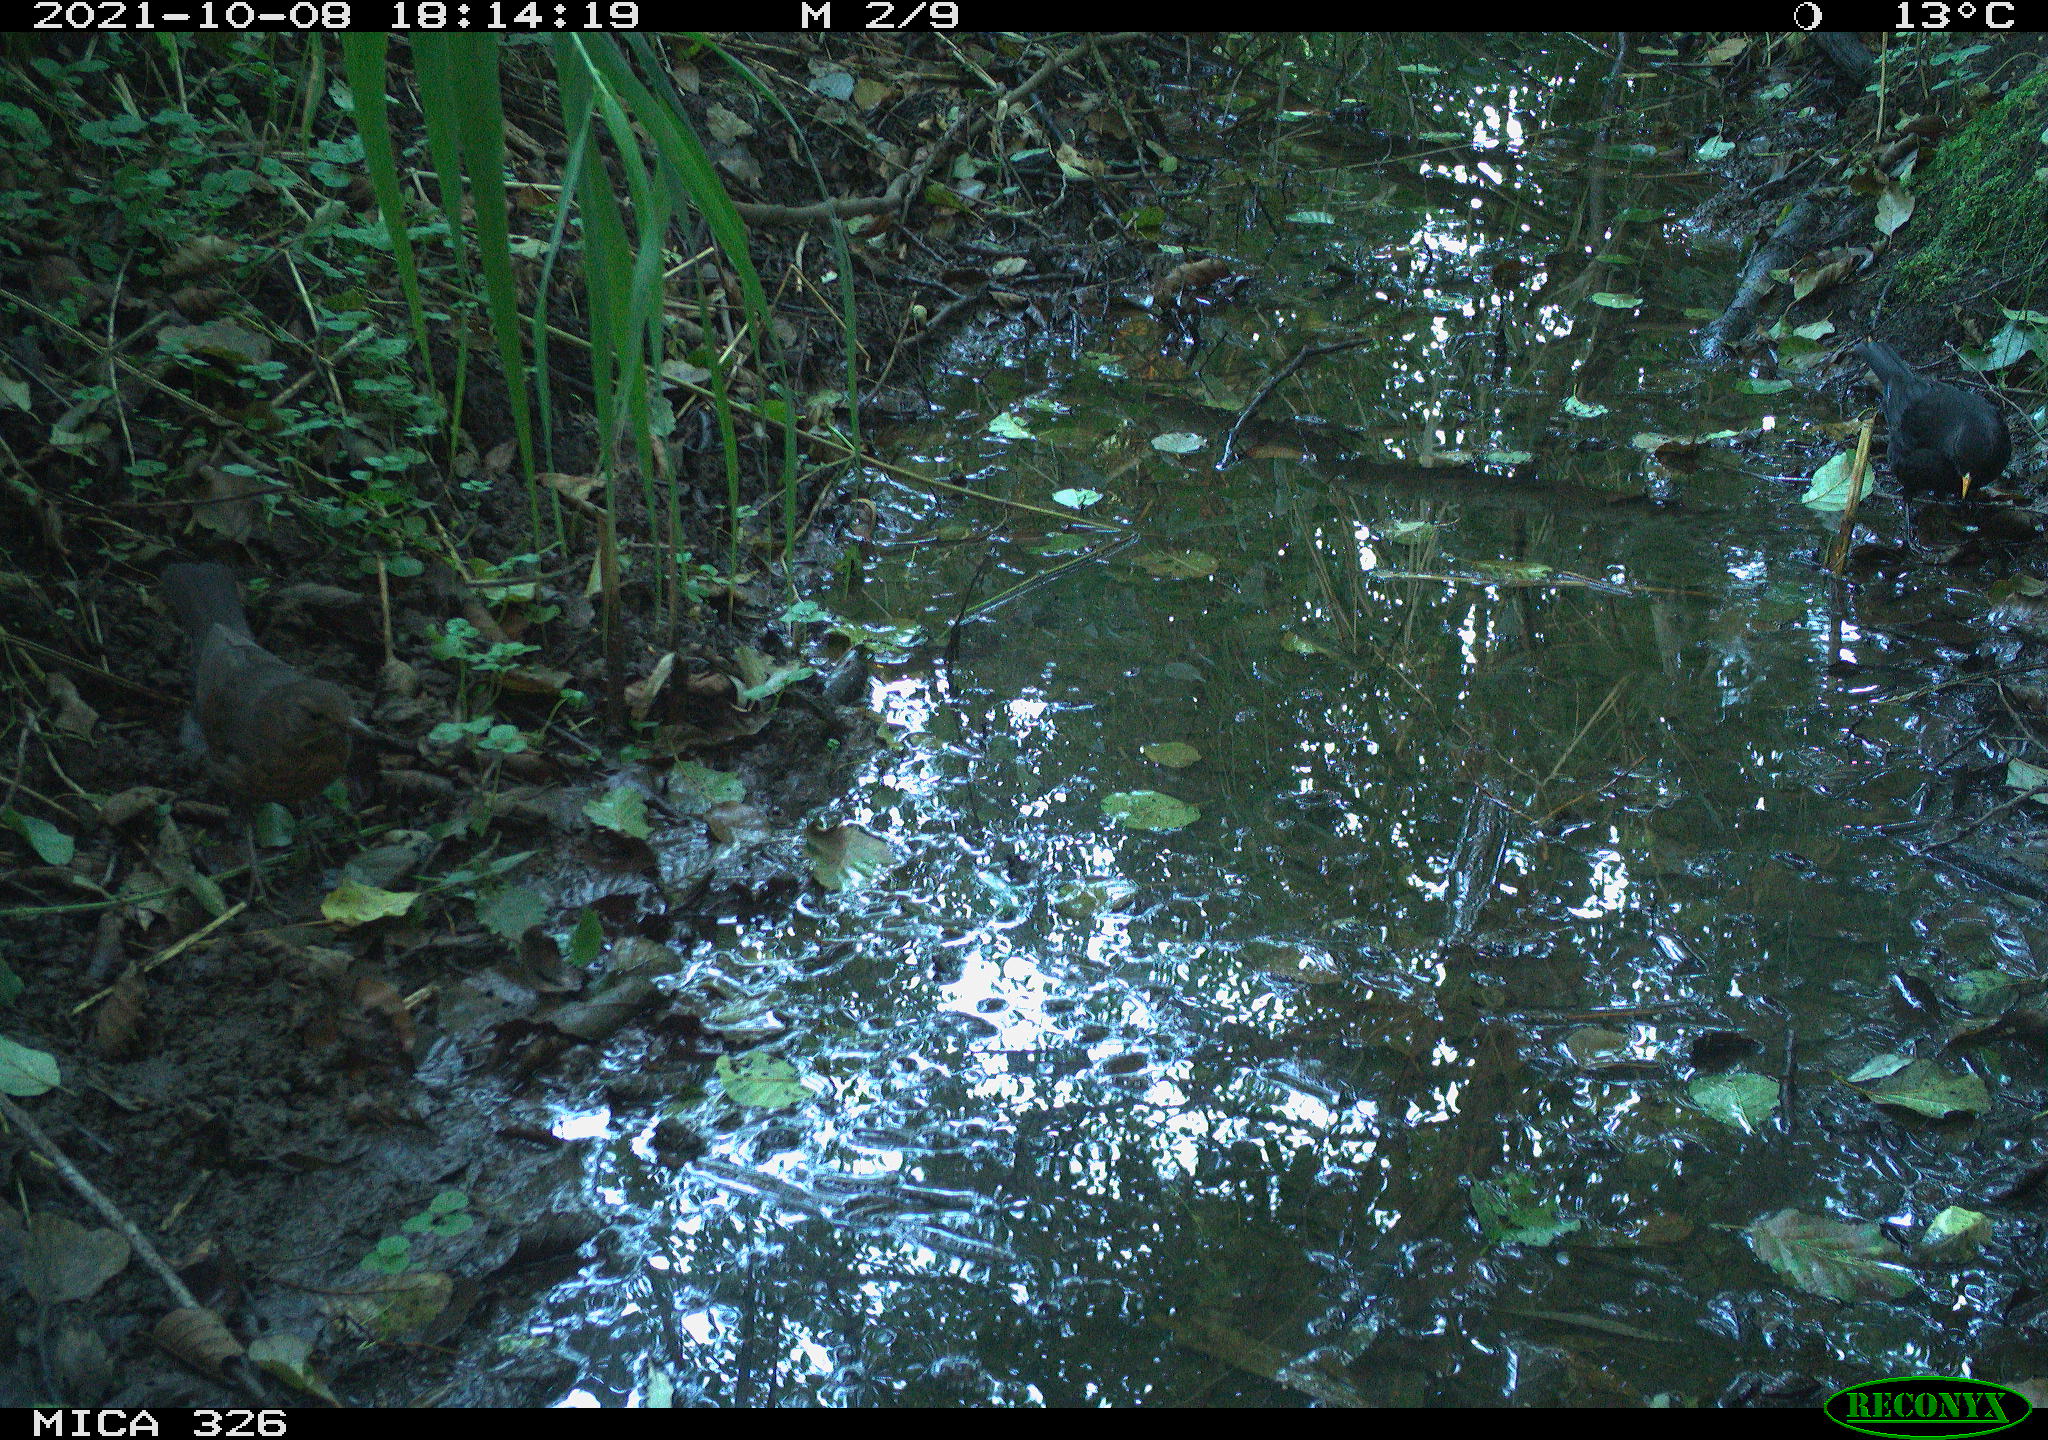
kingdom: Animalia
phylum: Chordata
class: Aves
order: Passeriformes
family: Turdidae
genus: Turdus
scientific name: Turdus merula
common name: Common blackbird
